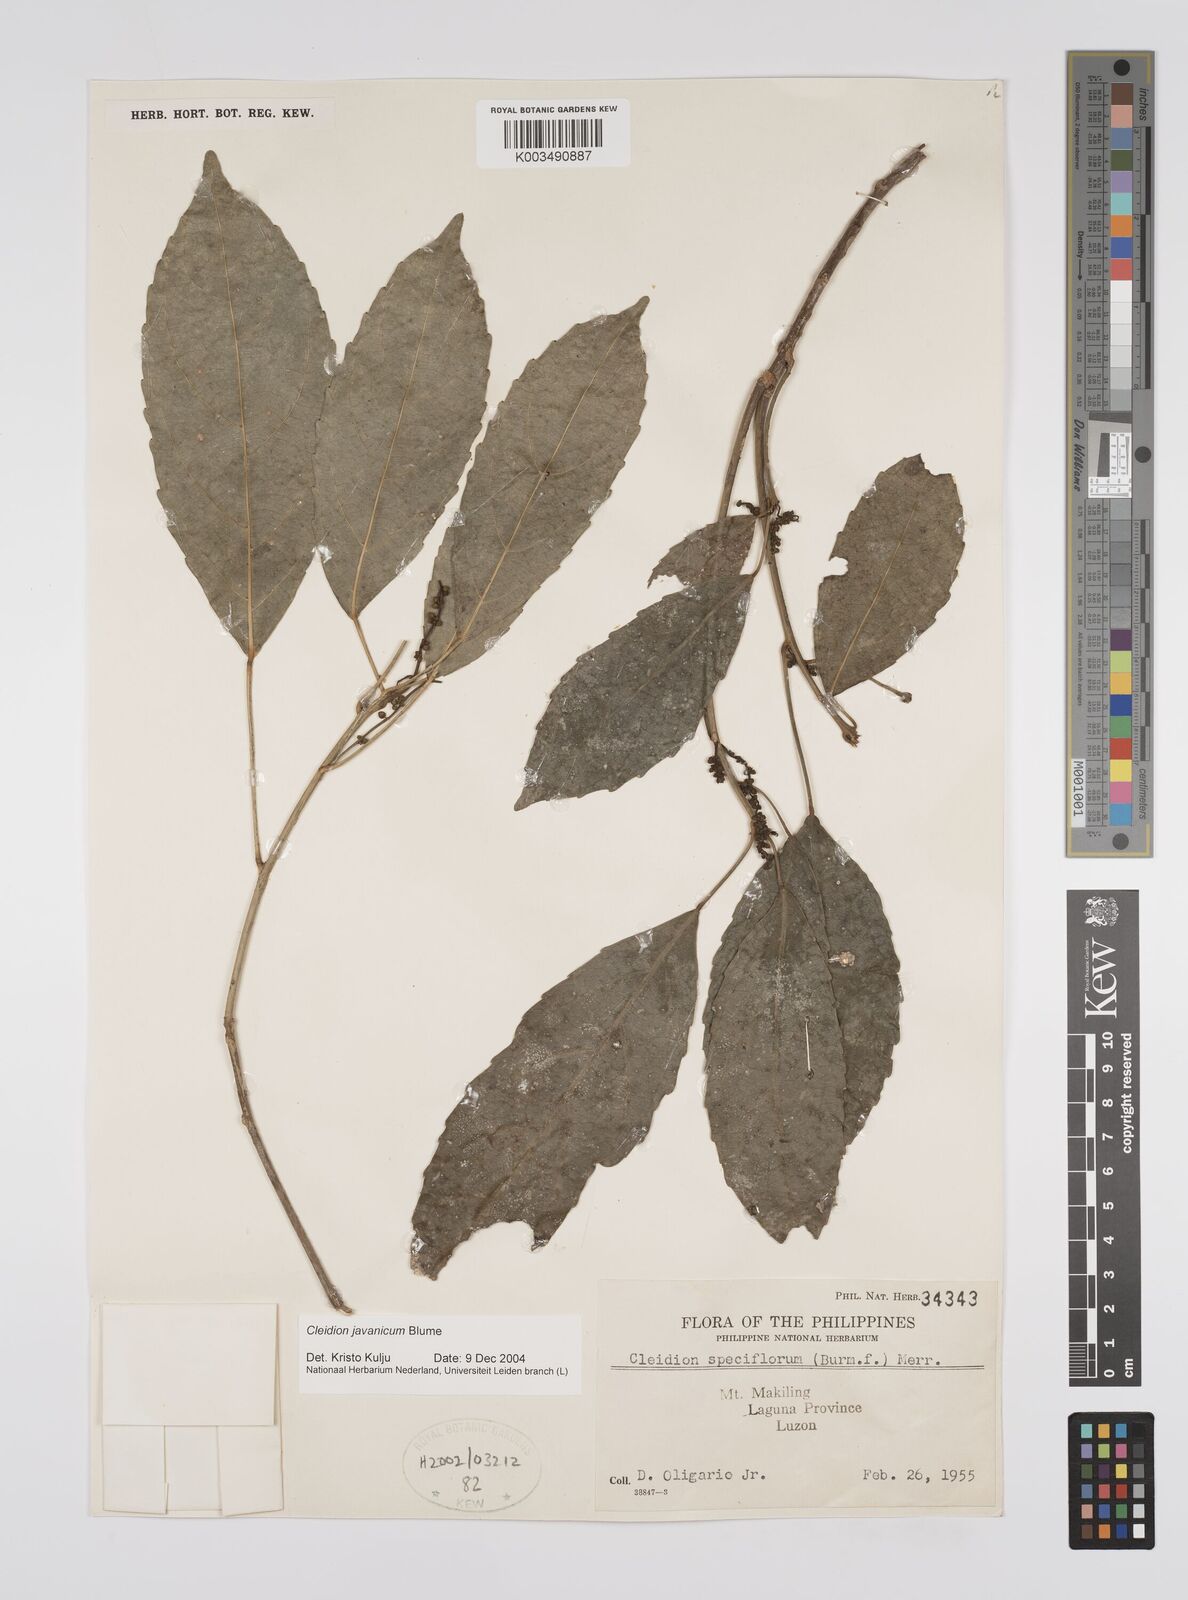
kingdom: Plantae
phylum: Tracheophyta
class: Magnoliopsida
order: Malpighiales
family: Euphorbiaceae
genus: Cleidion
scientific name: Cleidion javanicum
